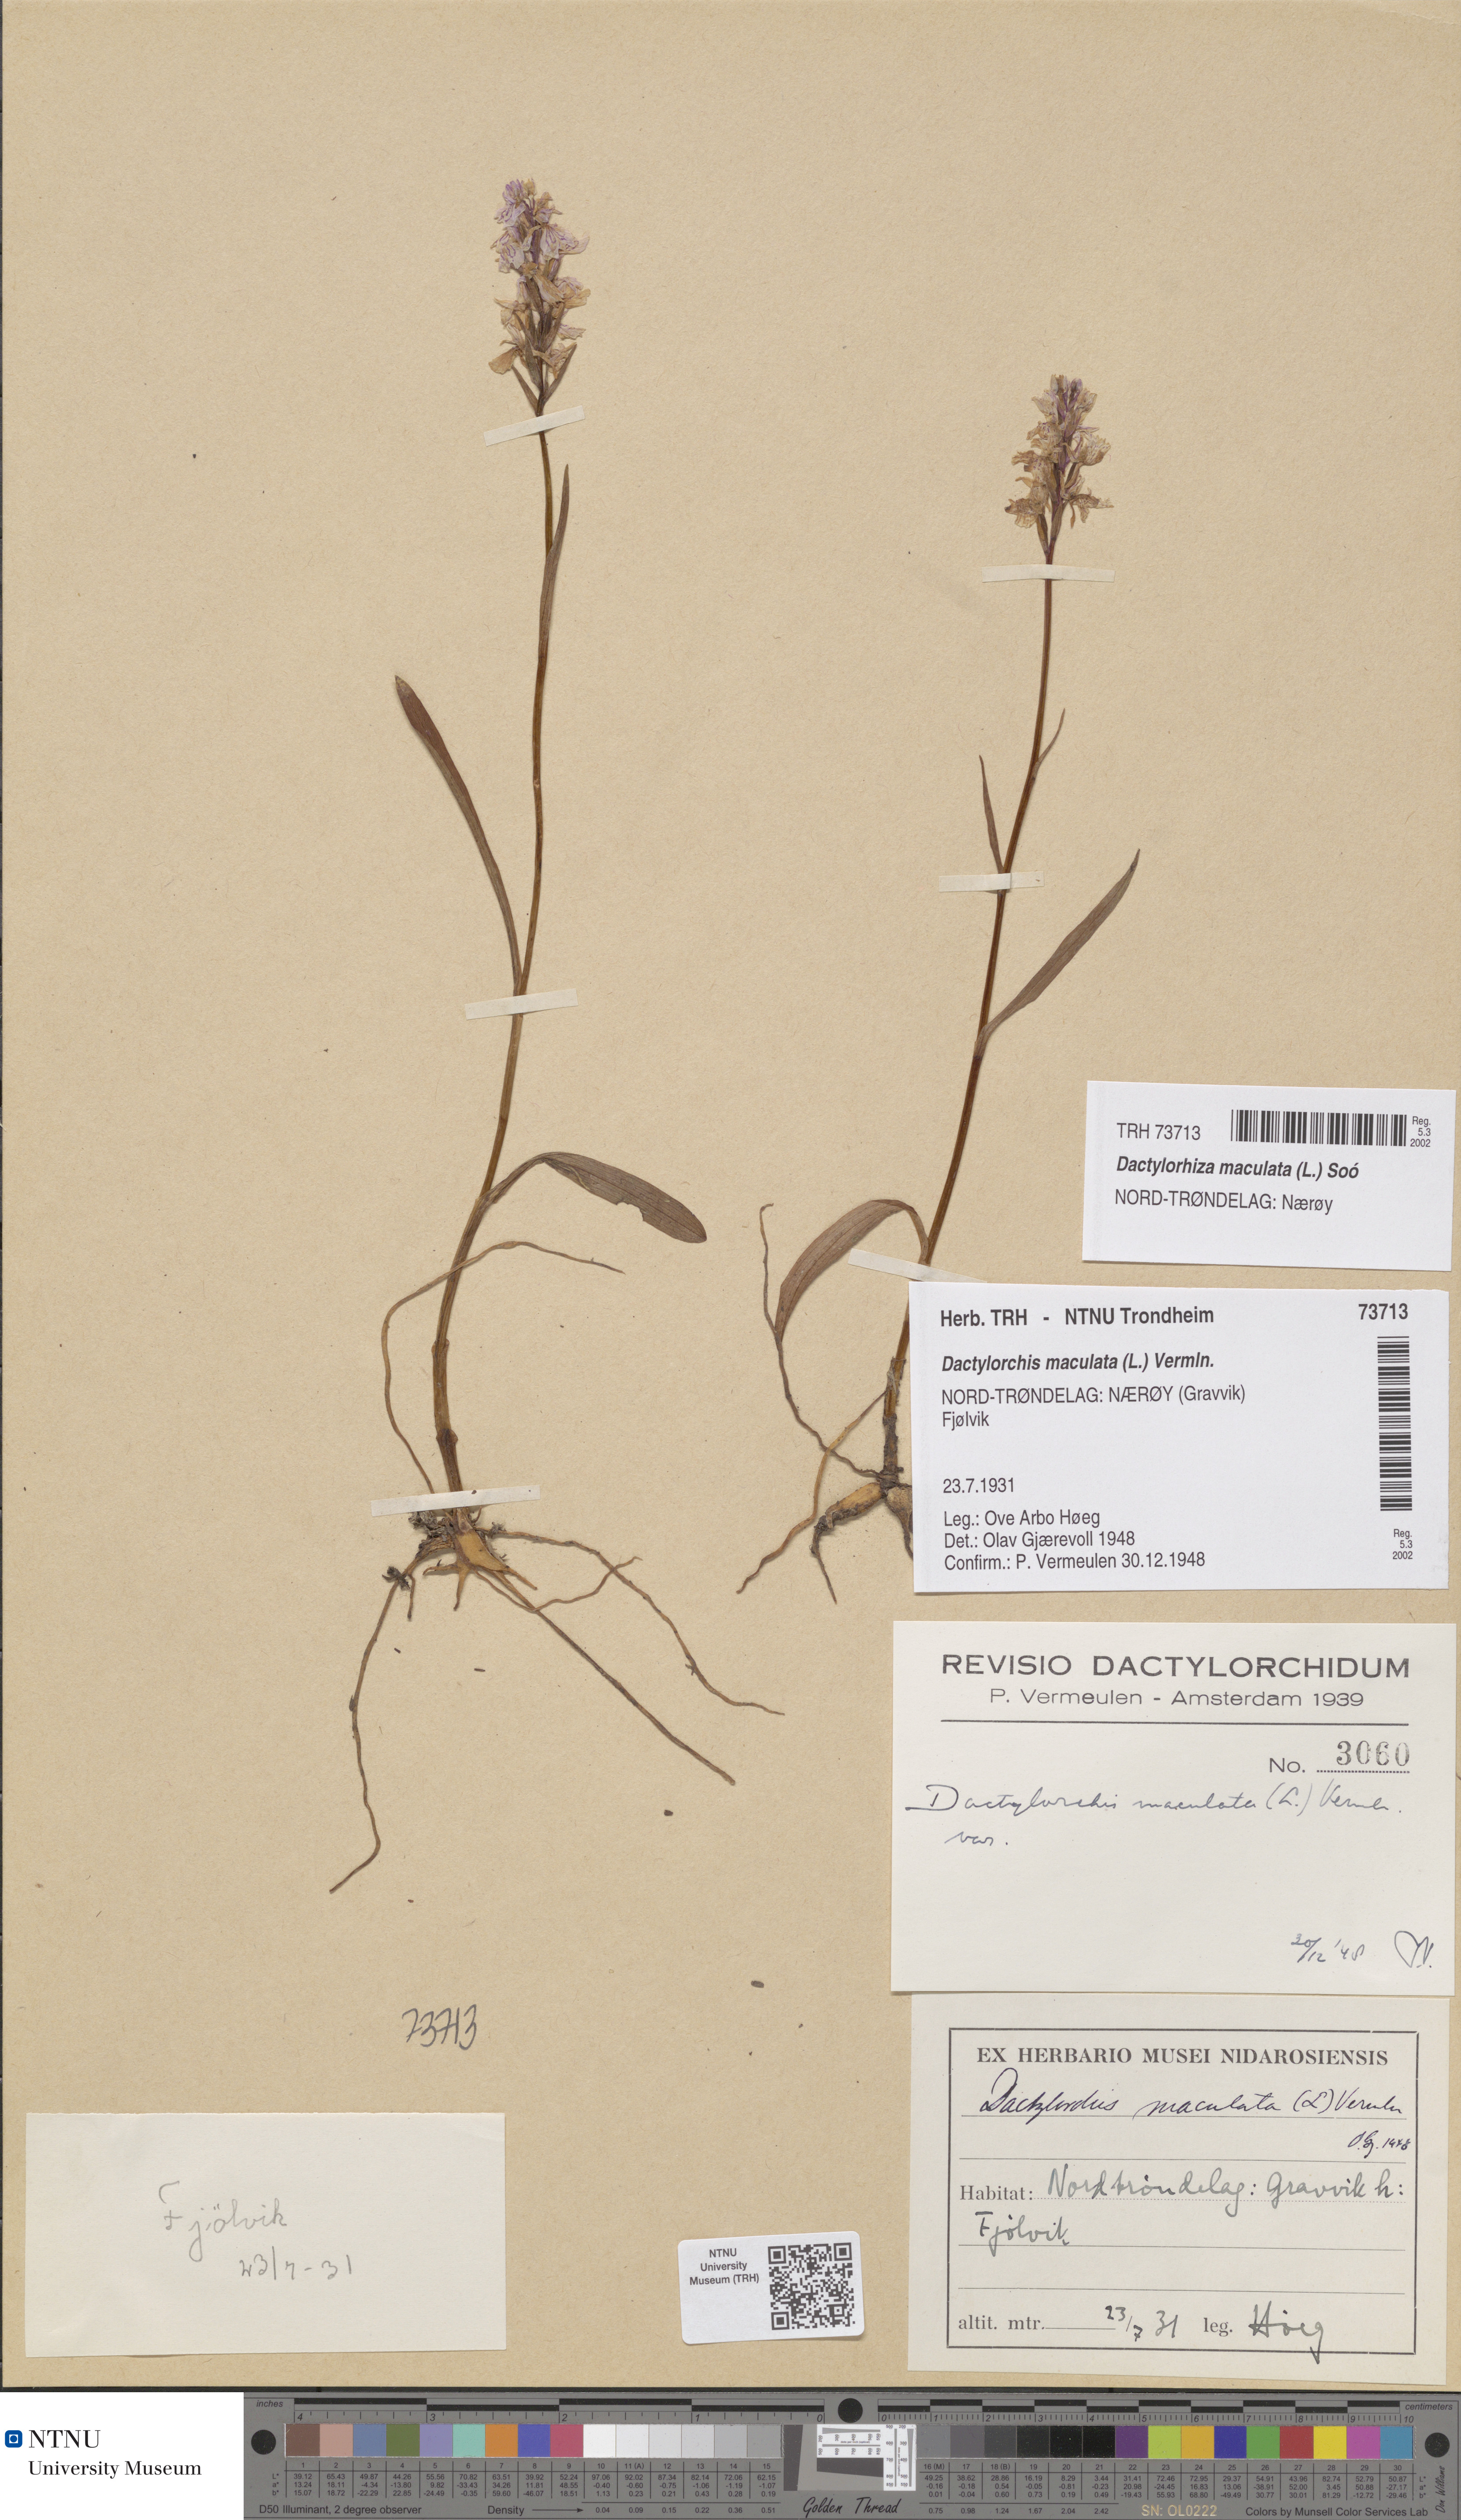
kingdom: Plantae
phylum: Tracheophyta
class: Liliopsida
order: Asparagales
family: Orchidaceae
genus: Dactylorhiza
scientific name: Dactylorhiza maculata
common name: Heath spotted-orchid
